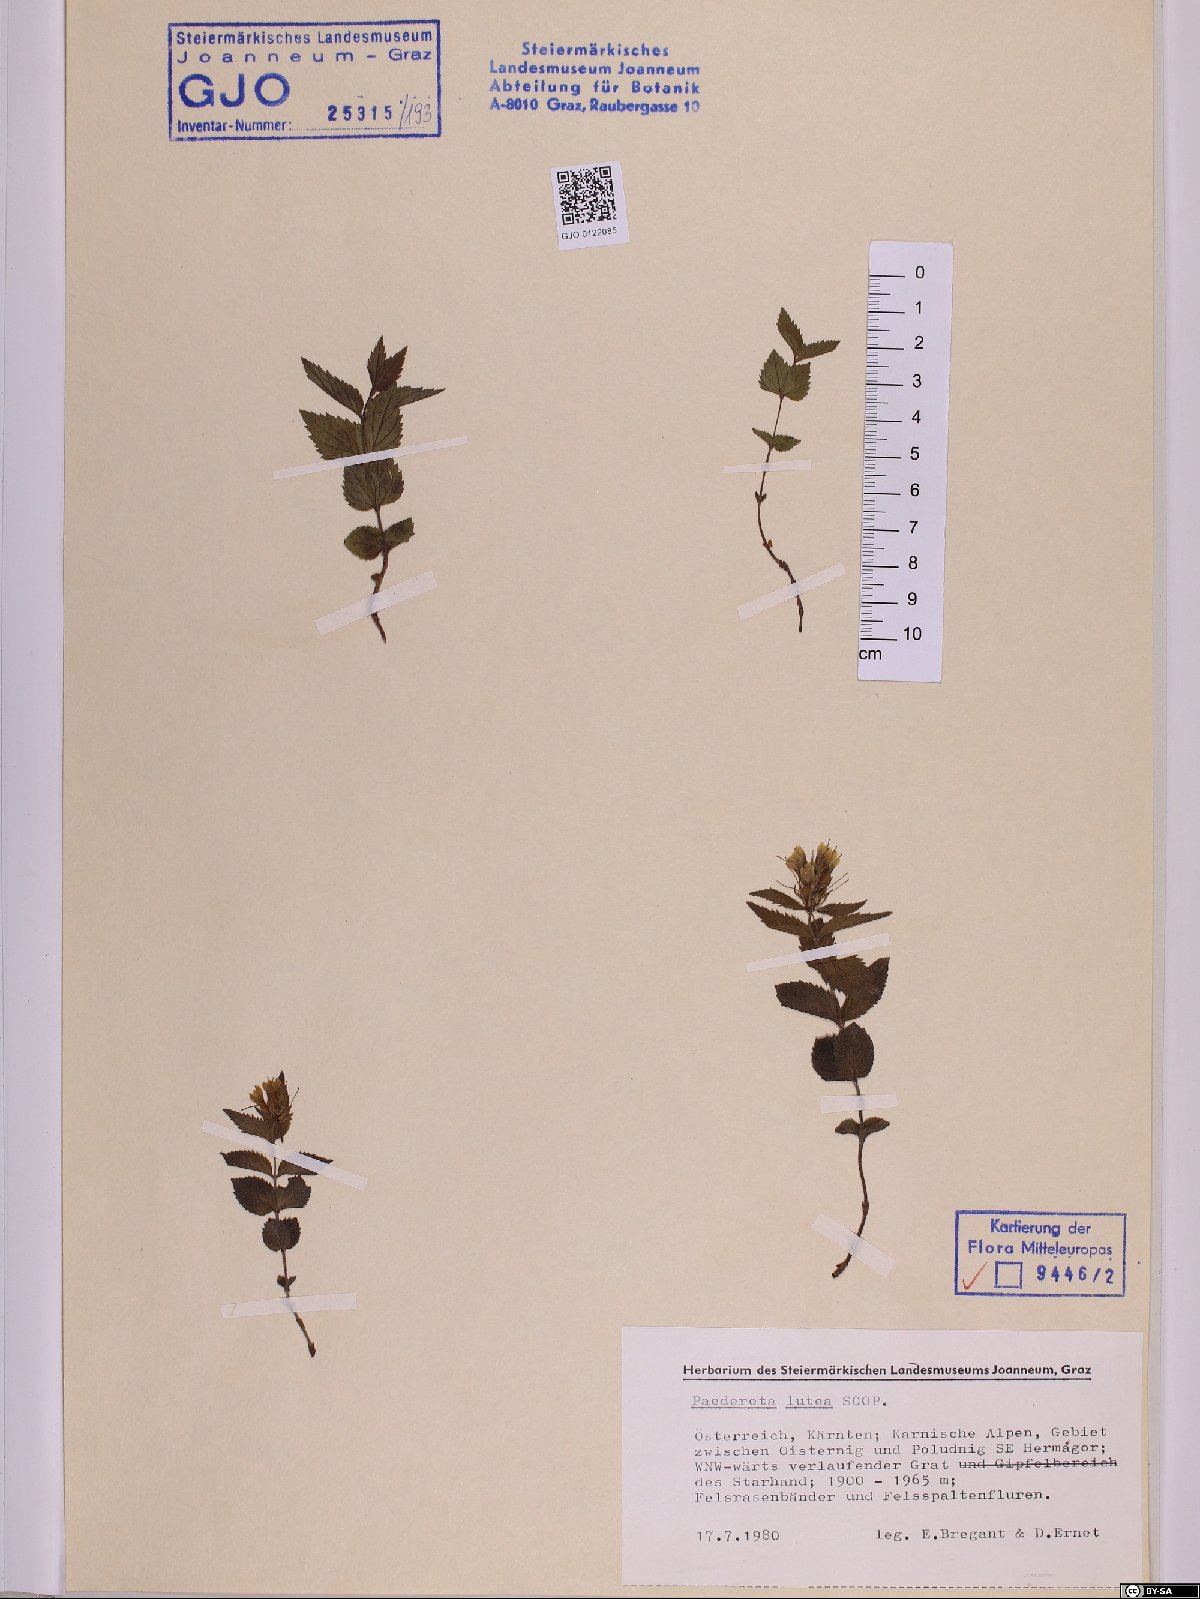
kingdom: Plantae
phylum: Tracheophyta
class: Magnoliopsida
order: Lamiales
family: Plantaginaceae
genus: Paederota
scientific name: Paederota lutea
